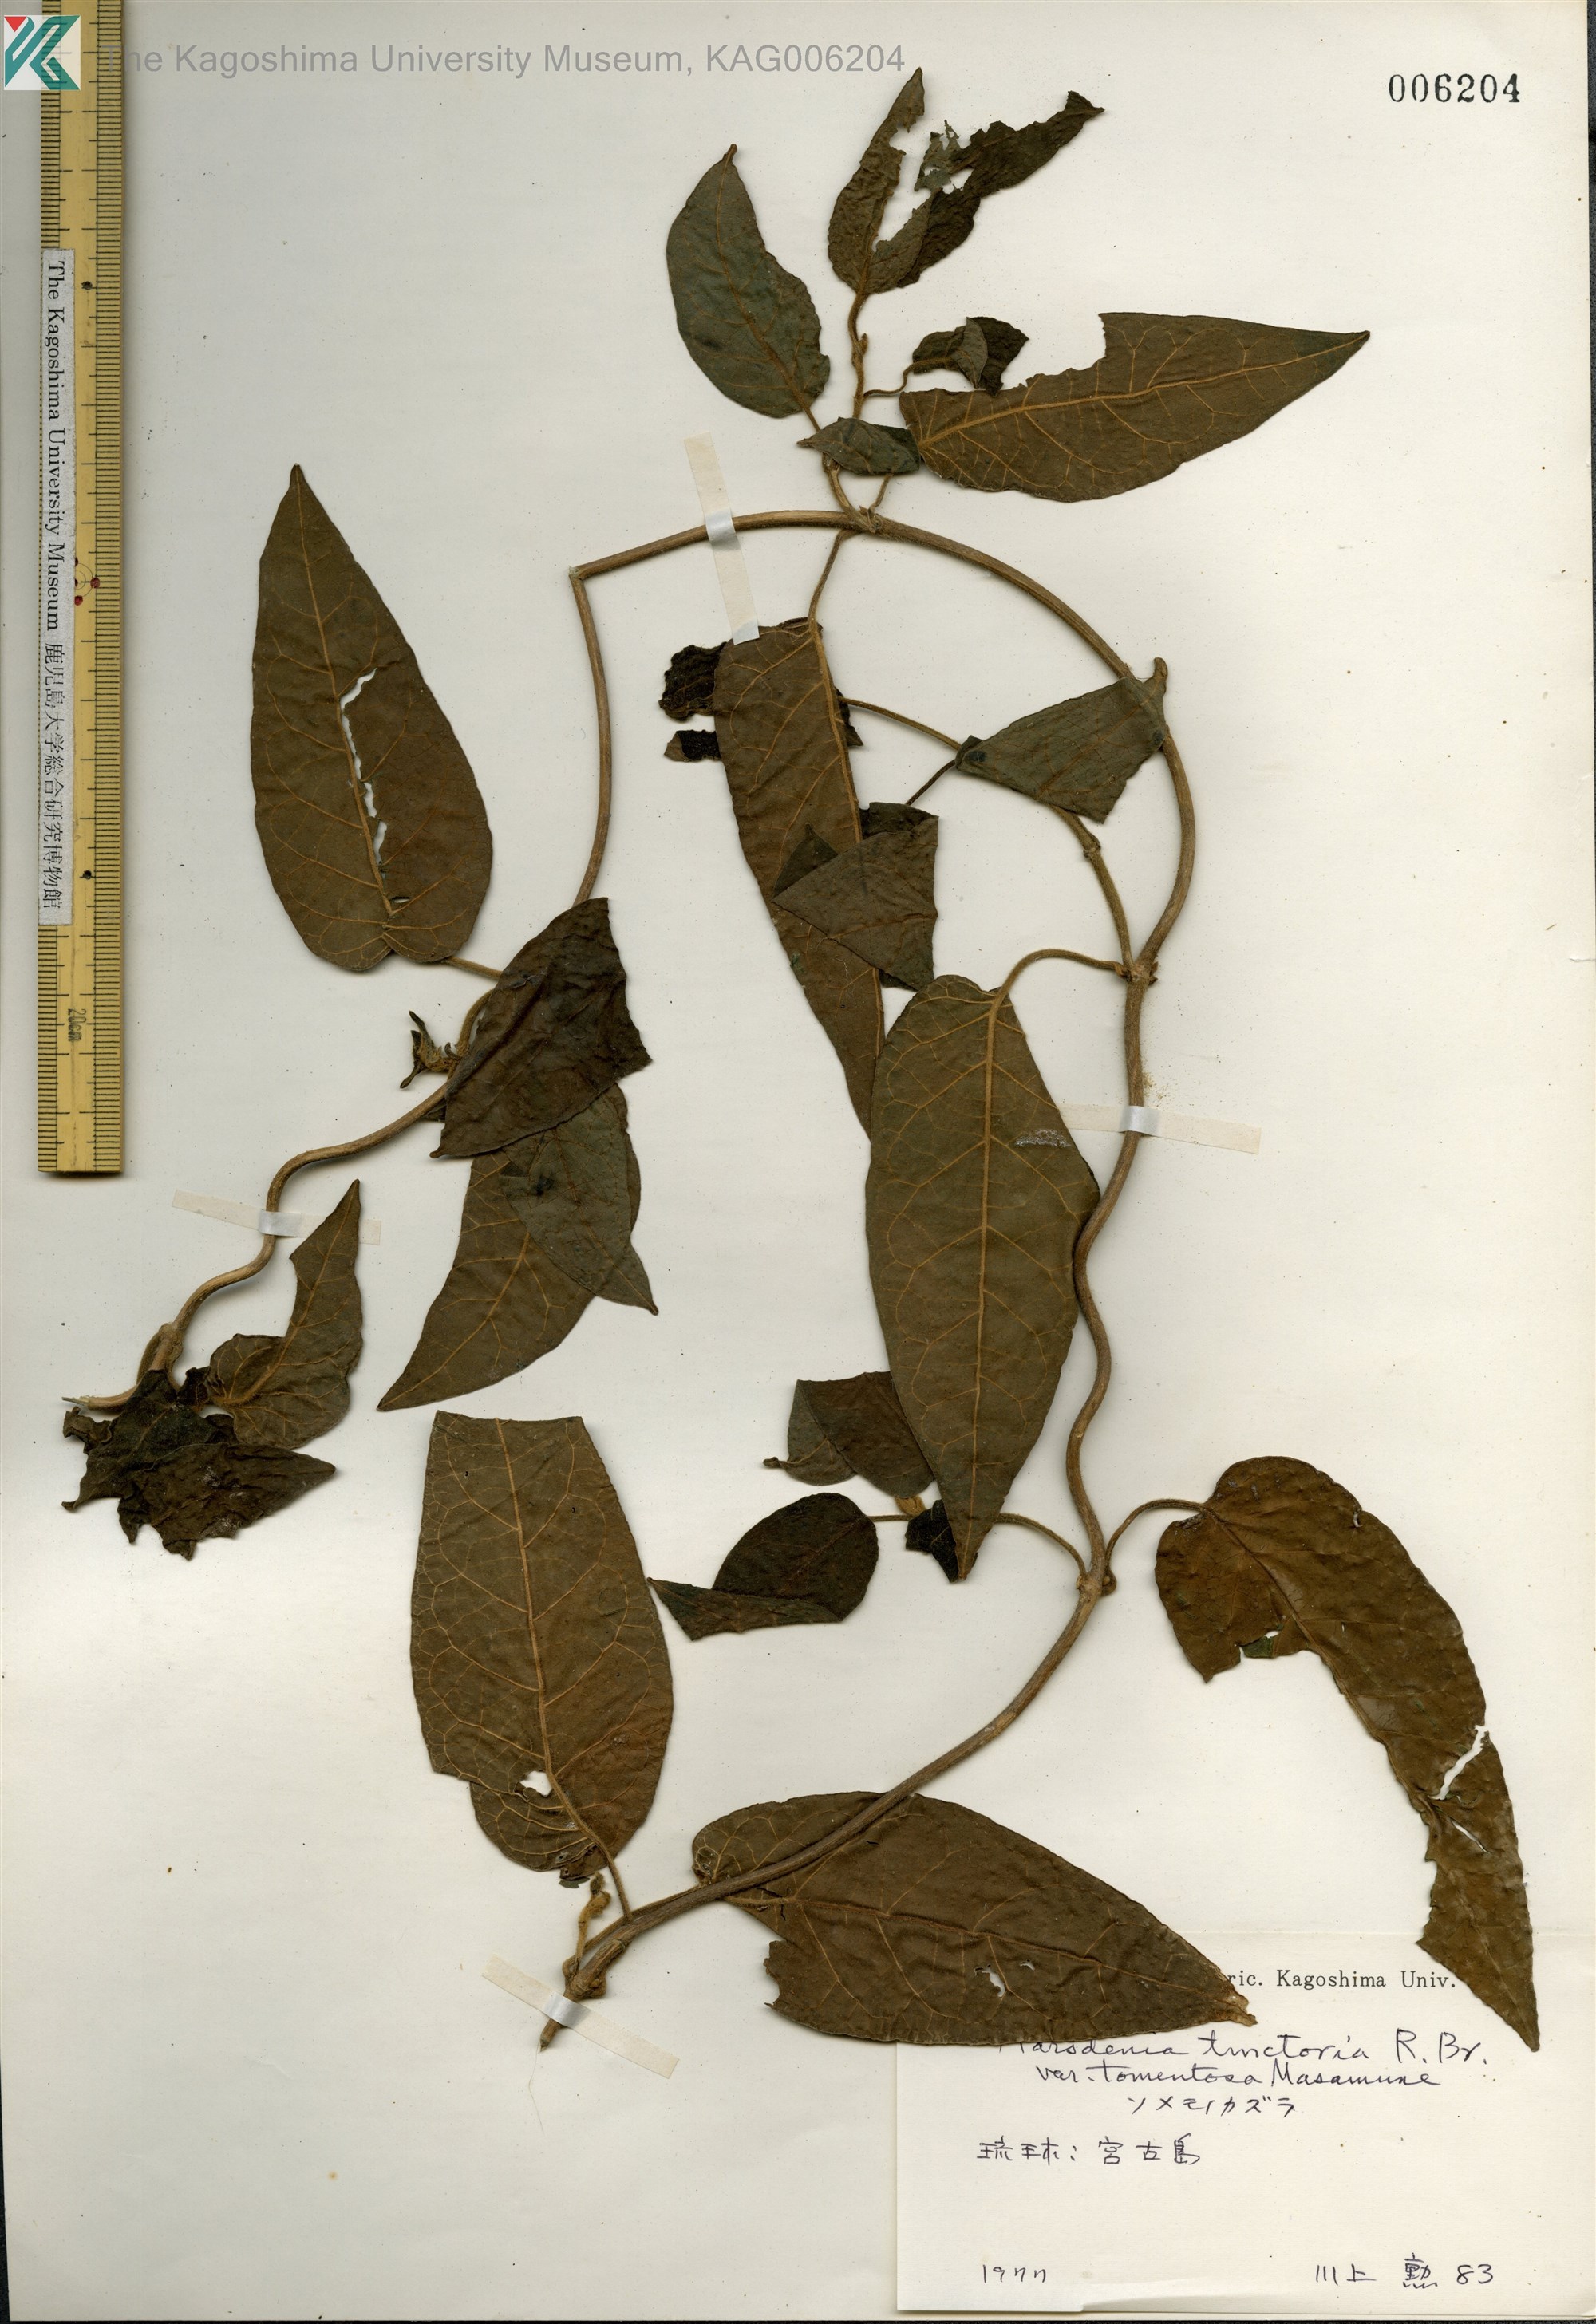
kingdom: Plantae
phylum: Tracheophyta
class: Magnoliopsida
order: Gentianales
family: Apocynaceae
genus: Marsdenia
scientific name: Marsdenia tinctoria
